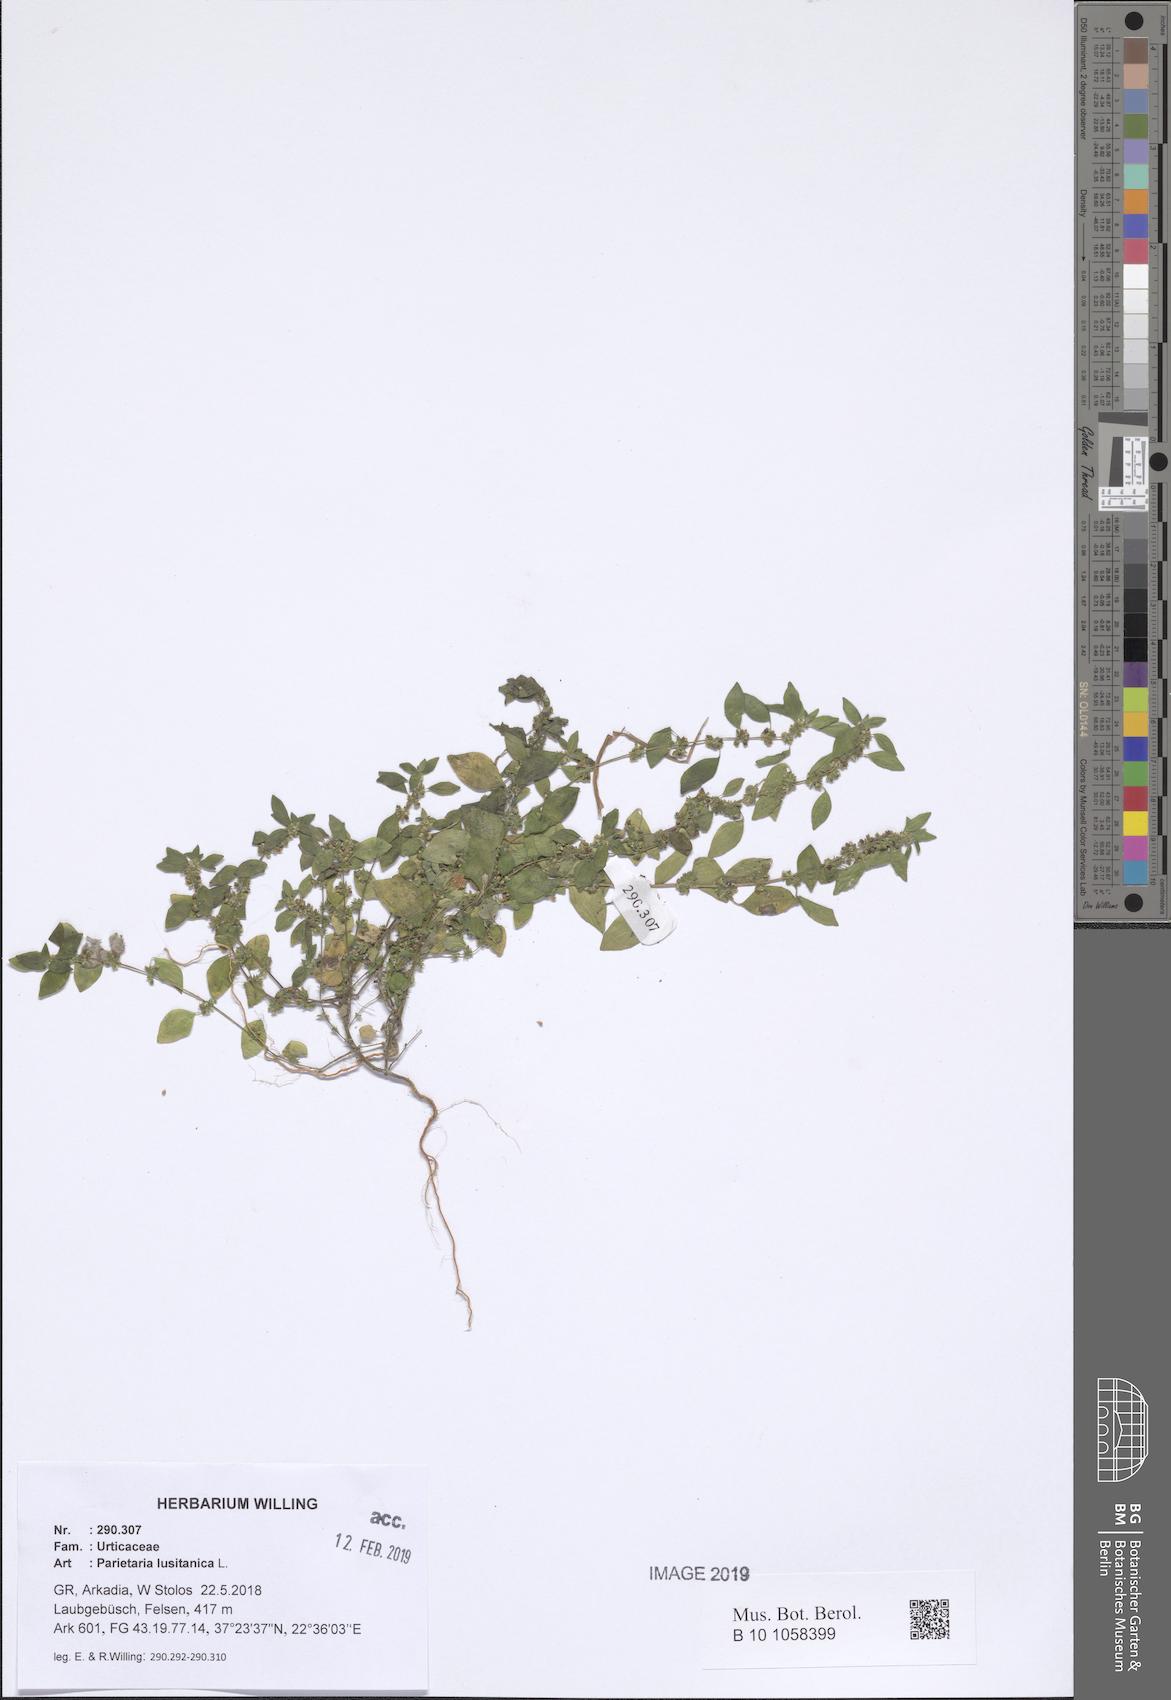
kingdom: Plantae
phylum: Tracheophyta
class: Magnoliopsida
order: Rosales
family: Urticaceae
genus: Parietaria
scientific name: Parietaria lusitanica
